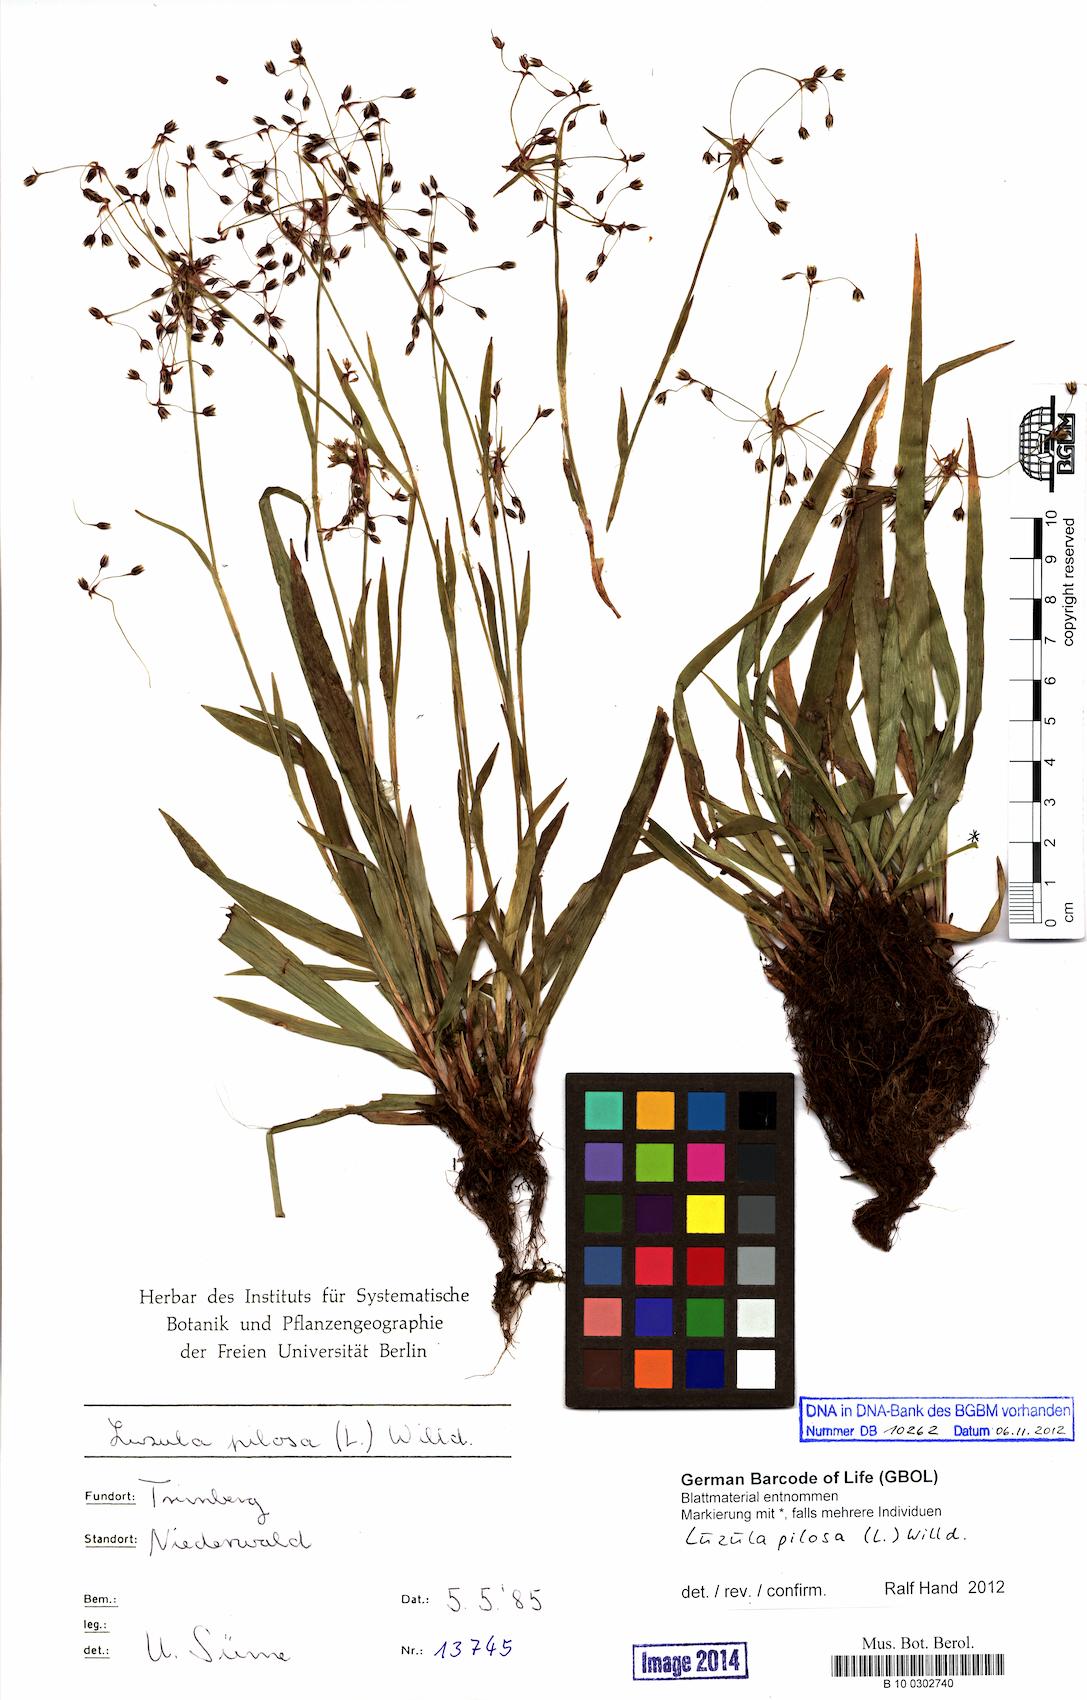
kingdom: Plantae
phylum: Tracheophyta
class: Liliopsida
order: Poales
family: Juncaceae
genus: Luzula
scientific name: Luzula pilosa
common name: Hairy wood-rush
